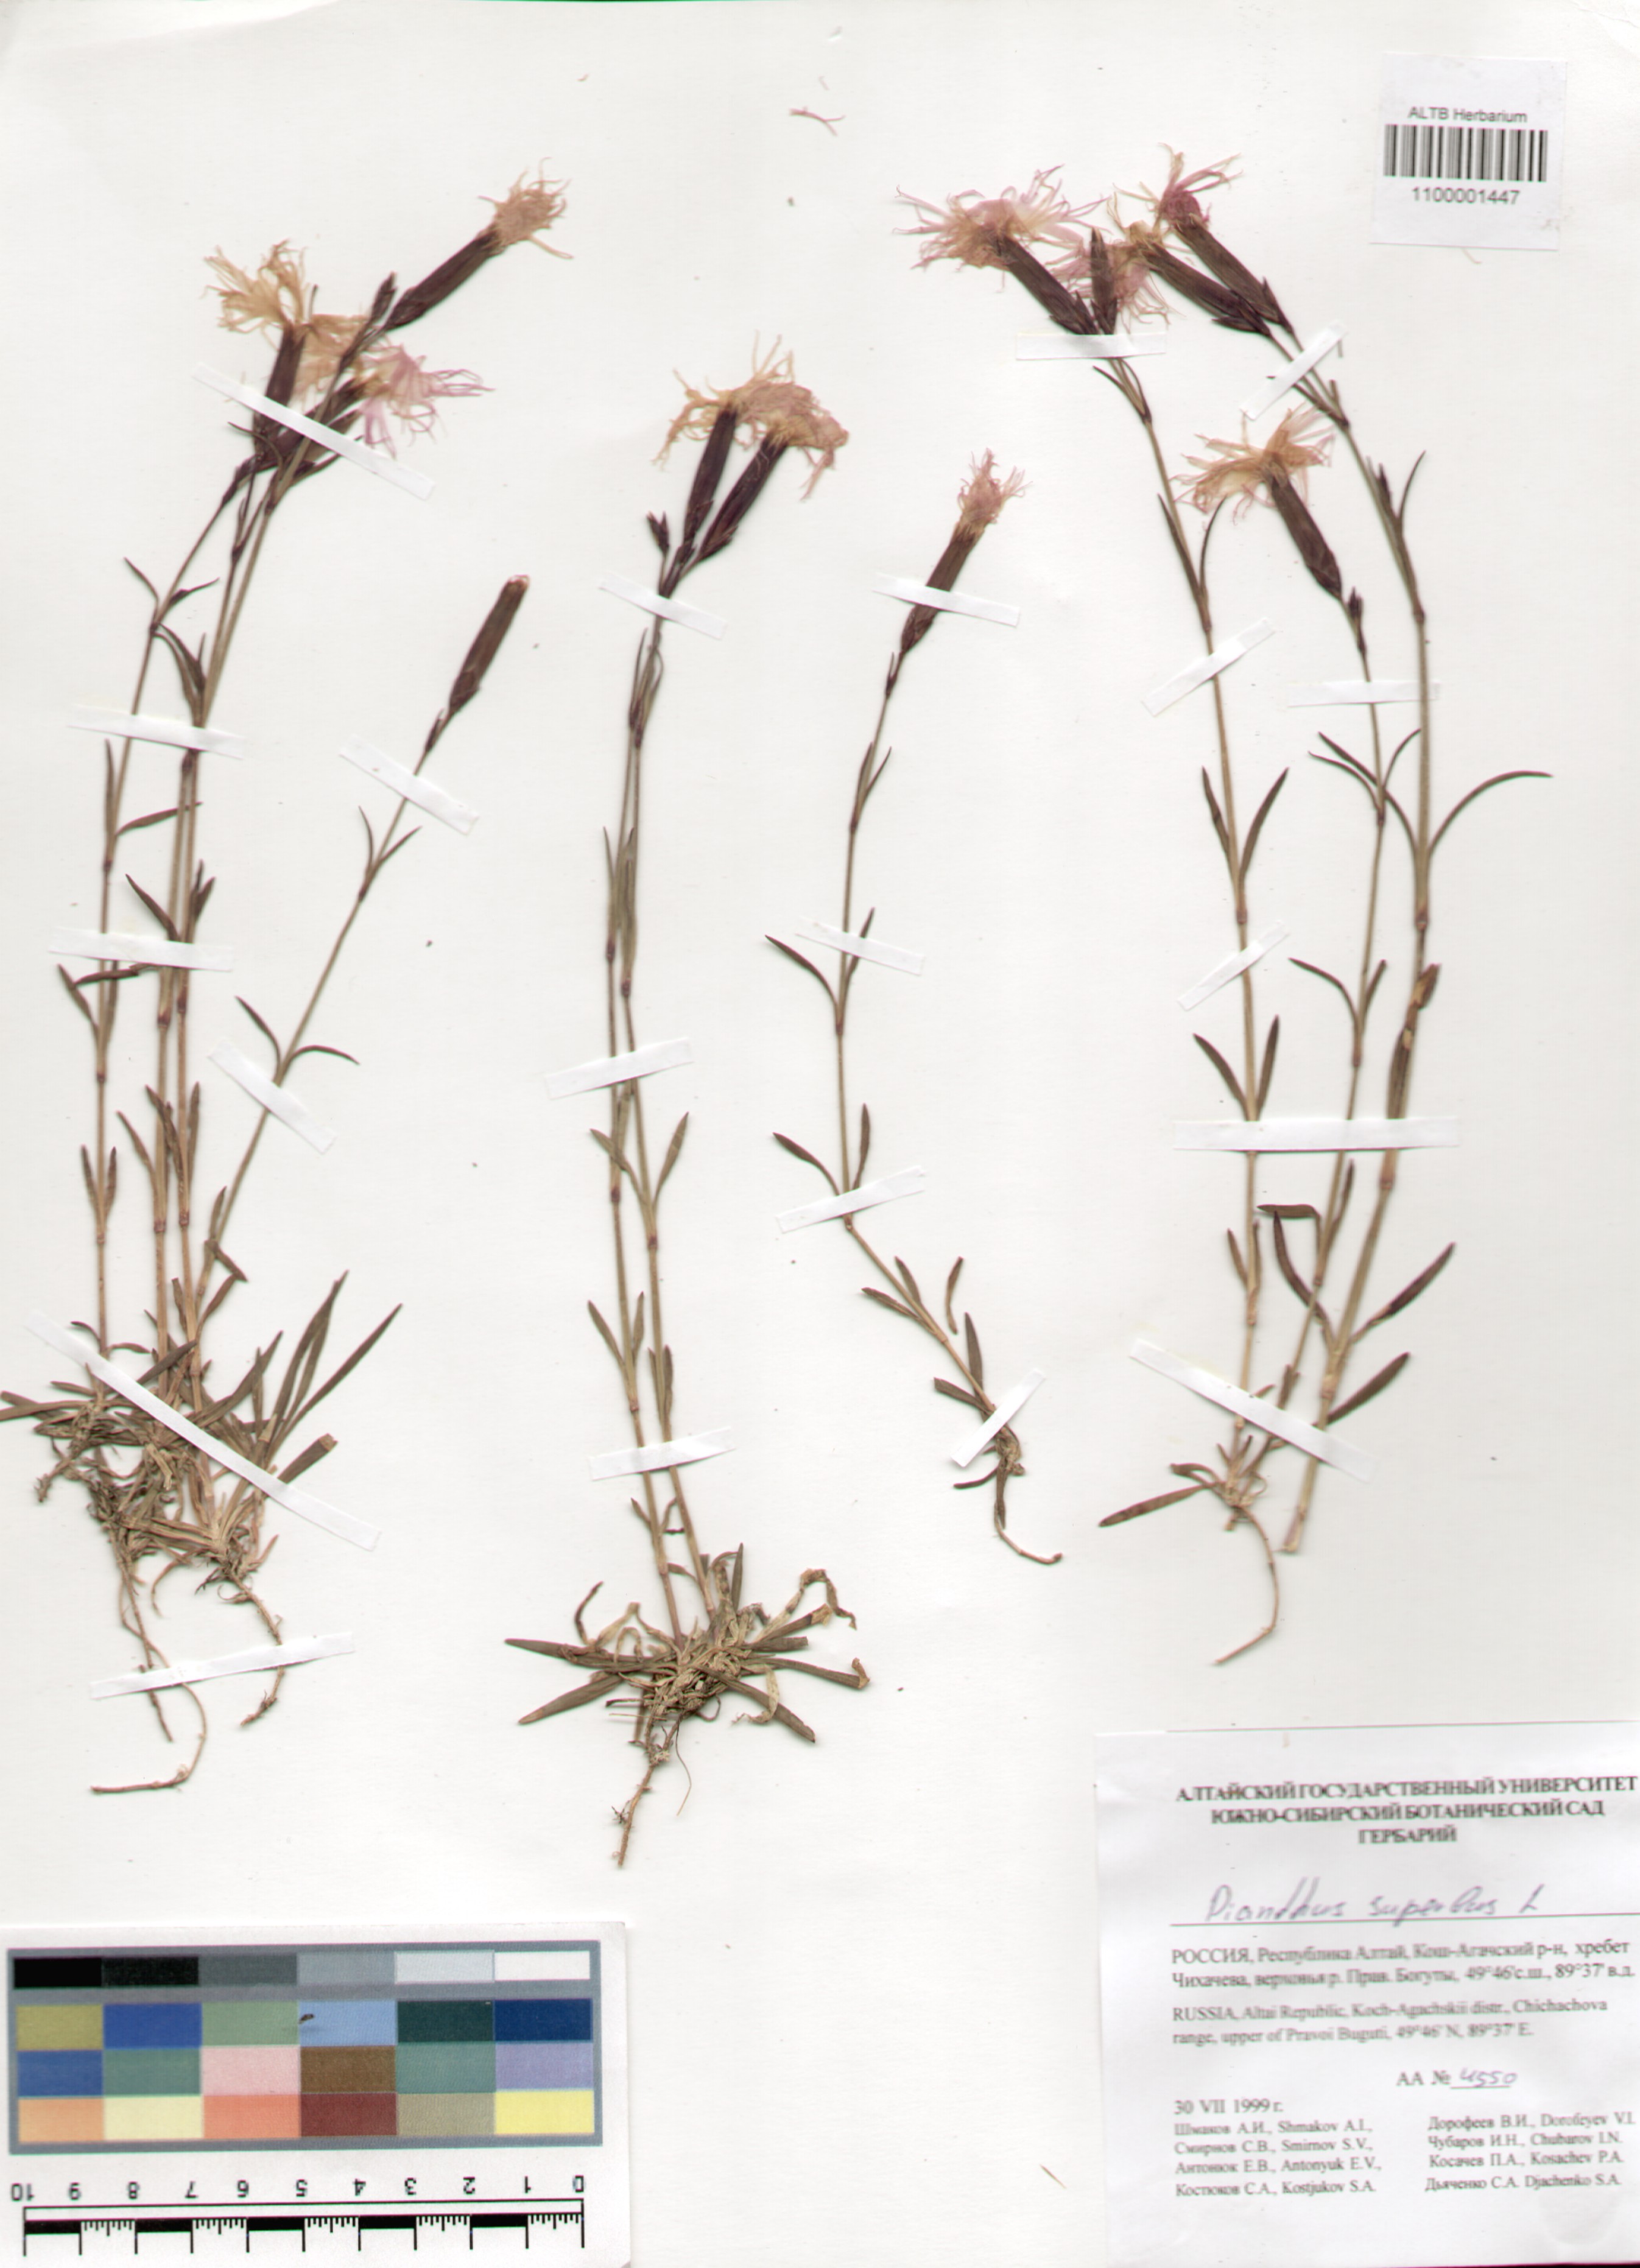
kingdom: Plantae
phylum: Tracheophyta
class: Magnoliopsida
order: Caryophyllales
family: Caryophyllaceae
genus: Dianthus
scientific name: Dianthus superbus
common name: Fringed pink
